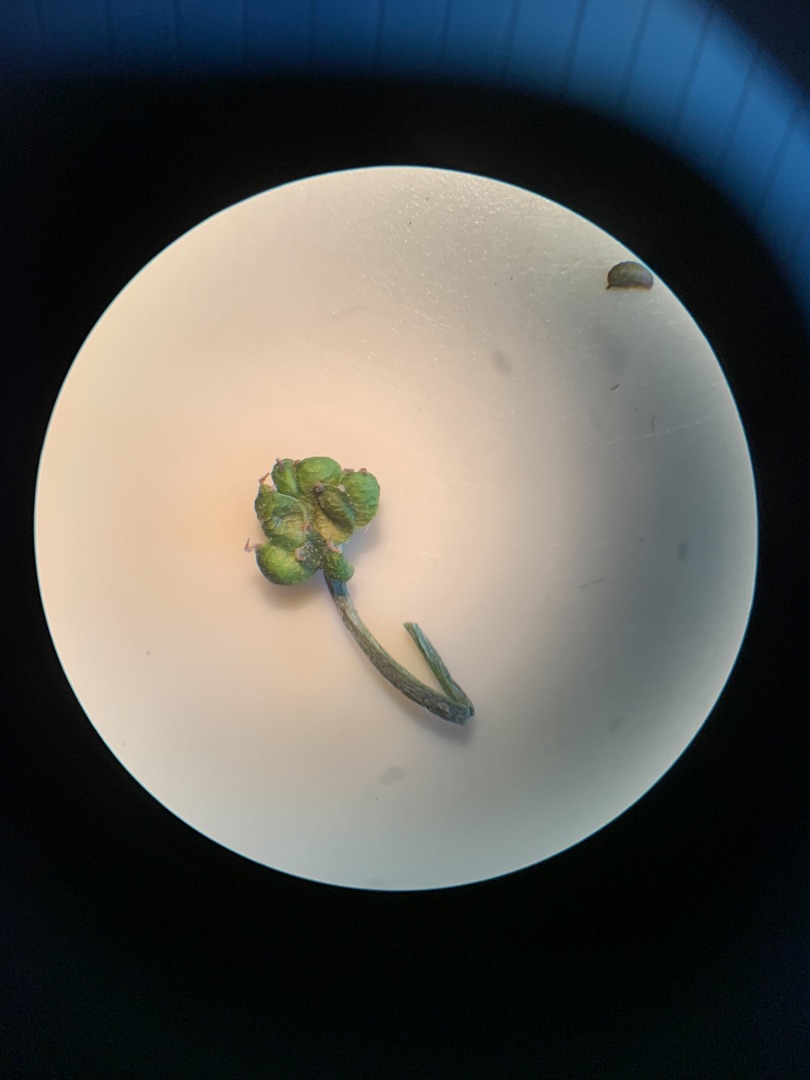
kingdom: Plantae
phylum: Tracheophyta
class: Magnoliopsida
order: Ranunculales
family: Ranunculaceae
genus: Ranunculus
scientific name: Ranunculus aquatilis
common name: Almindelig vandranunkel
